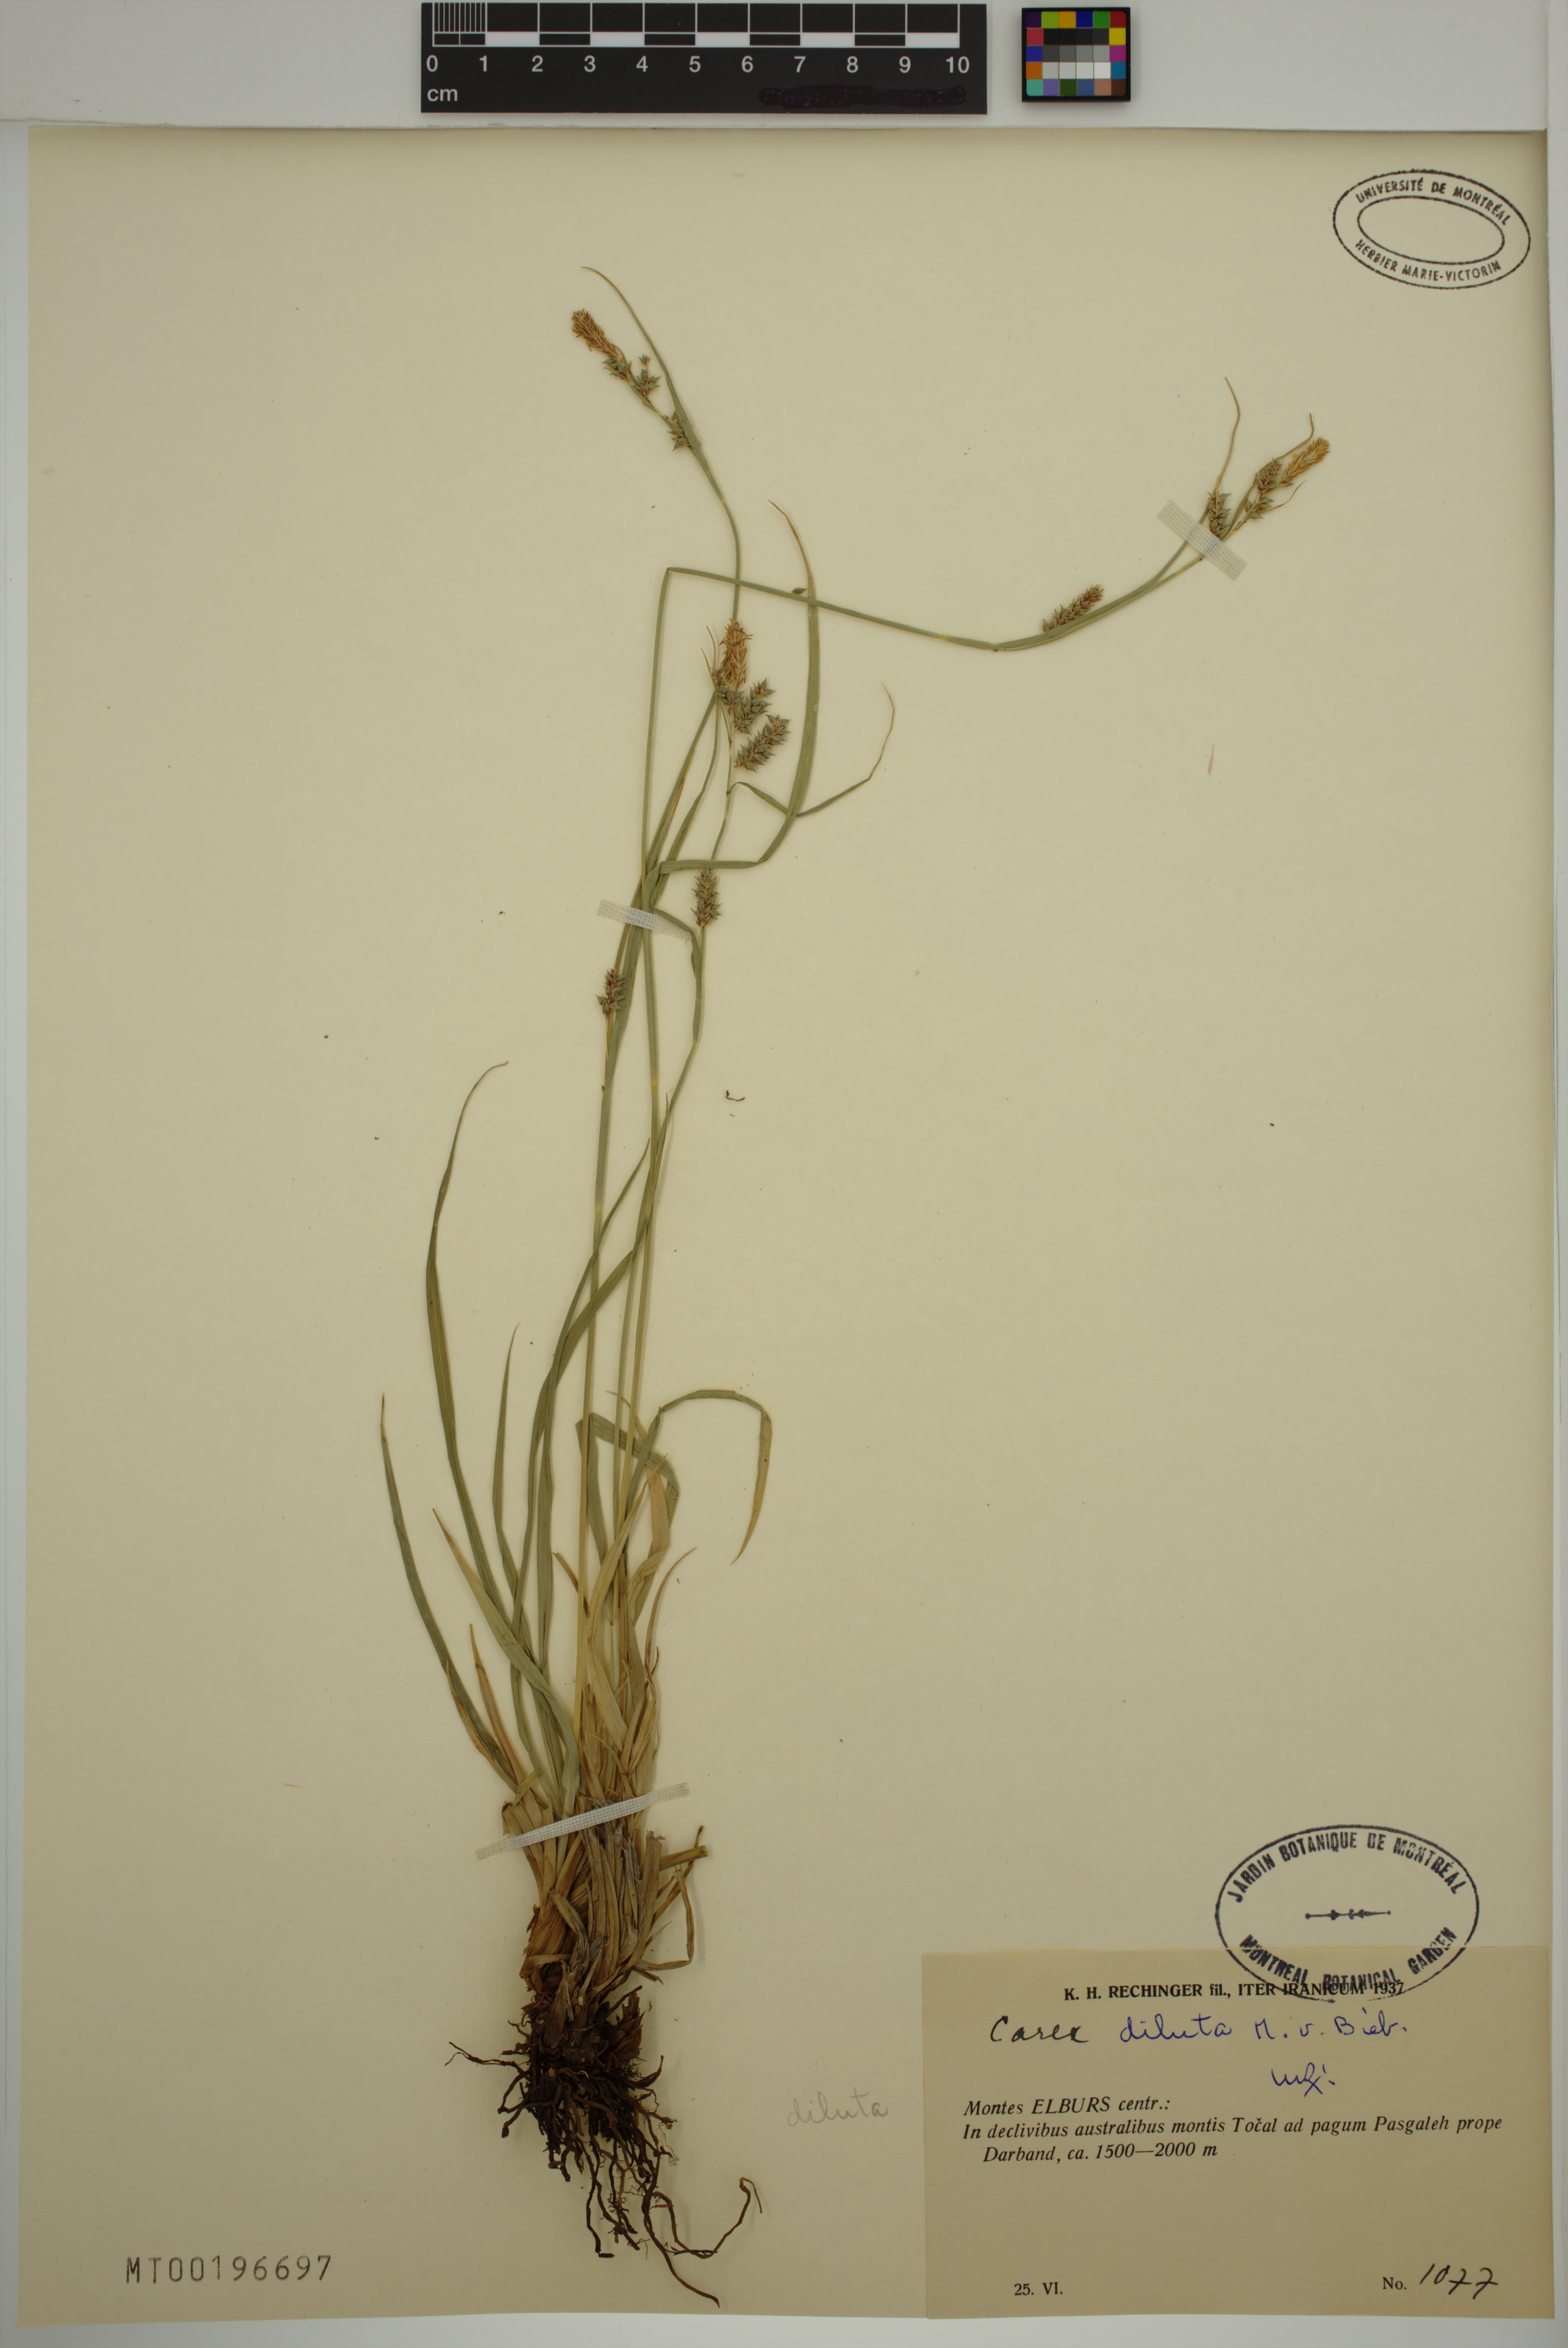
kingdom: Plantae
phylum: Tracheophyta
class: Liliopsida
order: Poales
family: Cyperaceae
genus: Carex
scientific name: Carex diluta
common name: Sedge
